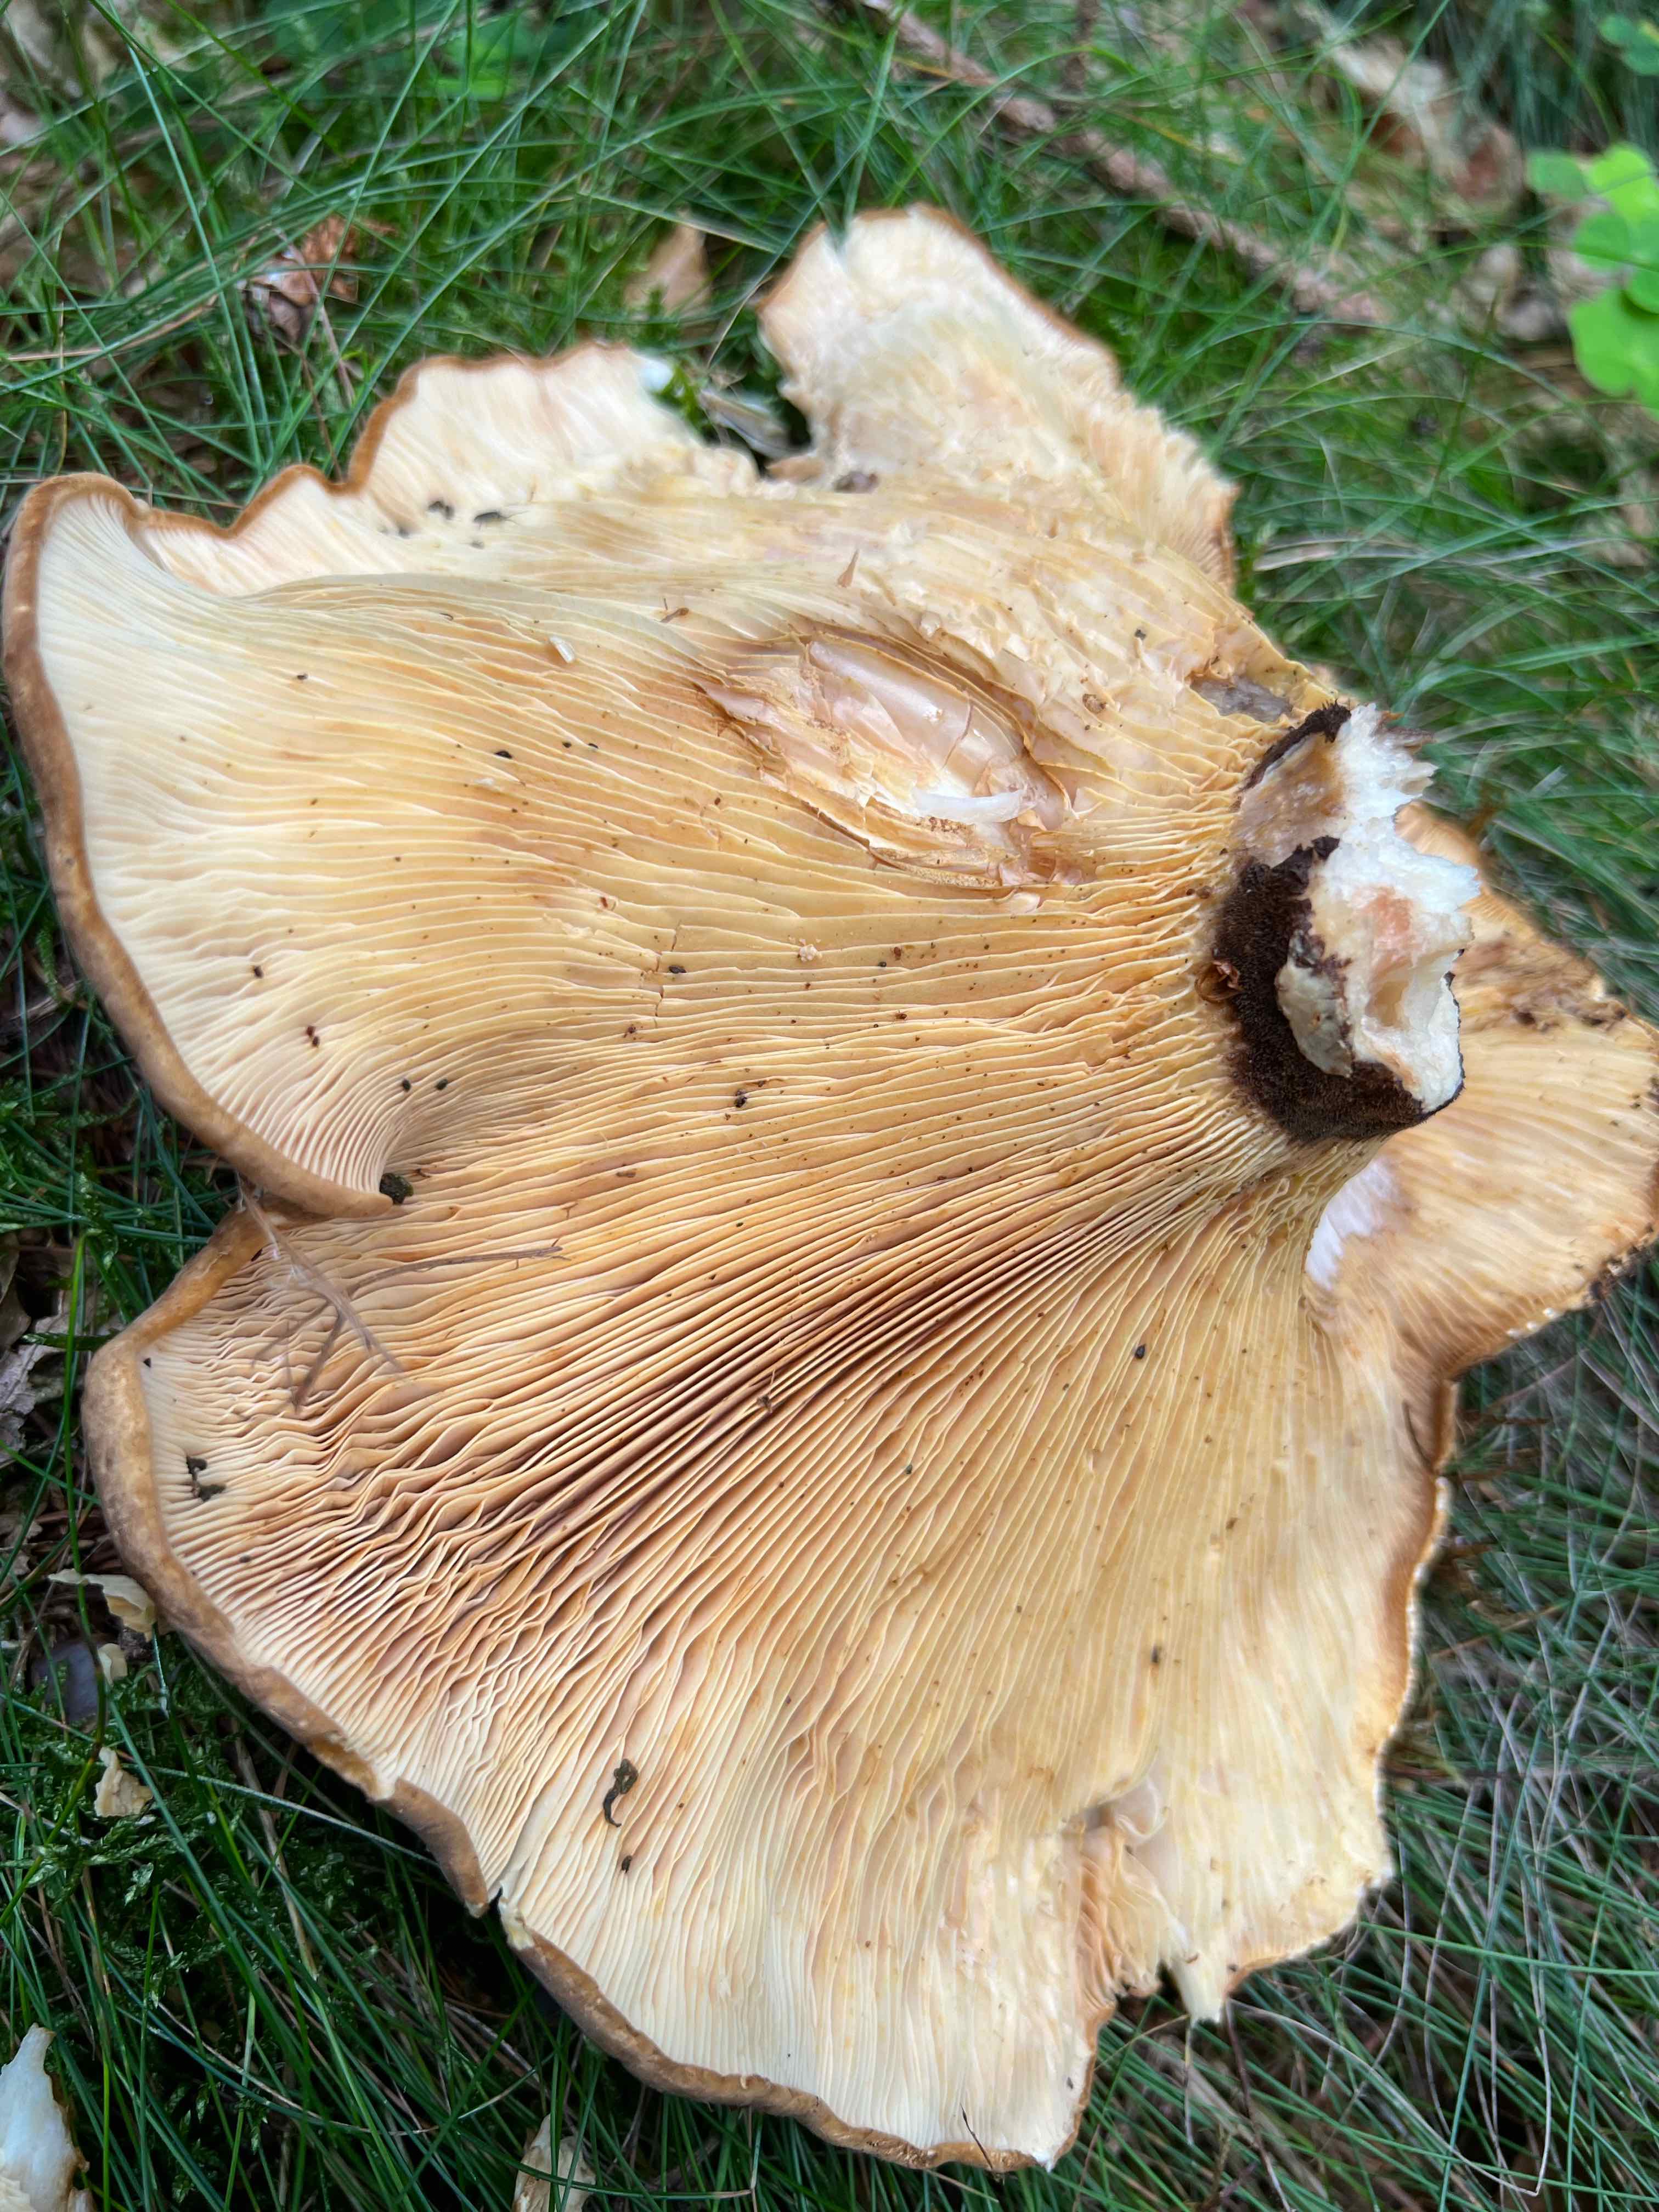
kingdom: Fungi
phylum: Basidiomycota
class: Agaricomycetes
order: Boletales
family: Tapinellaceae
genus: Tapinella
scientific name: Tapinella atrotomentosa
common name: sortfiltet viftesvamp
